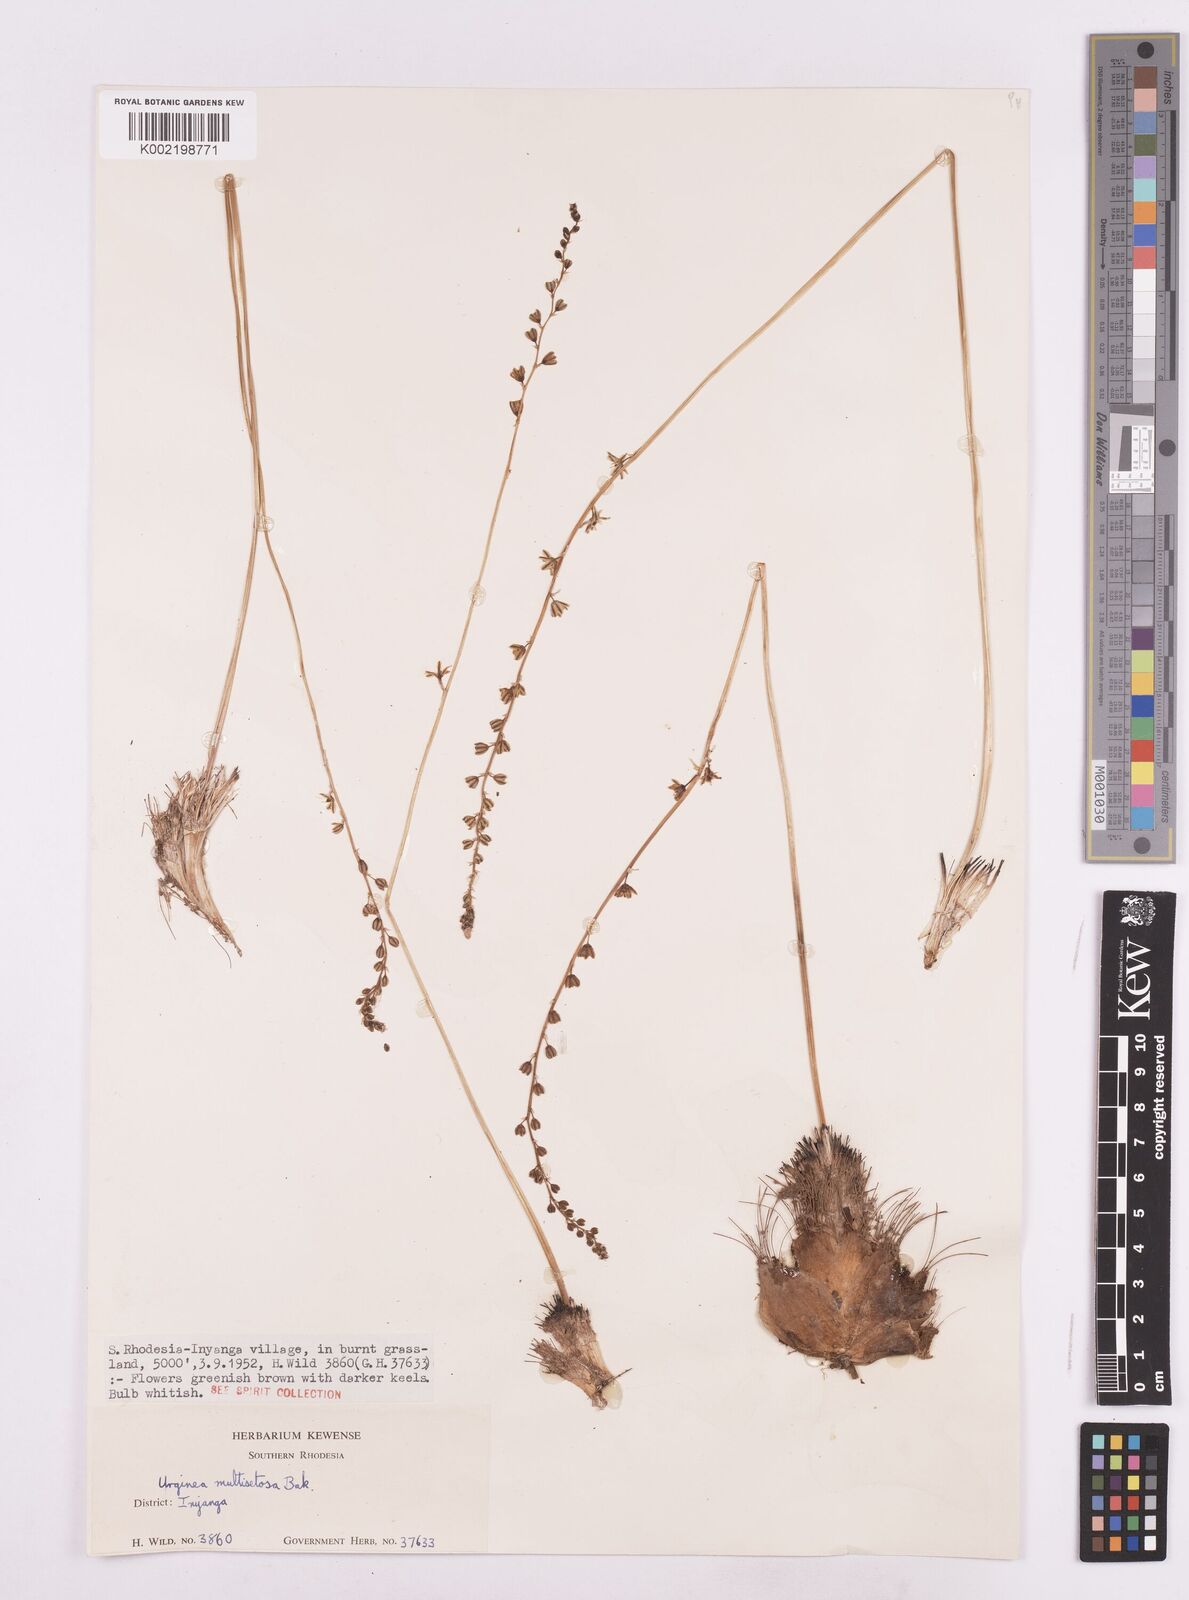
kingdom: Plantae
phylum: Tracheophyta
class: Liliopsida
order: Asparagales
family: Asparagaceae
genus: Drimia
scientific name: Drimia multisetosa
